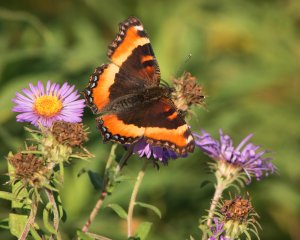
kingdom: Animalia
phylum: Arthropoda
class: Insecta
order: Lepidoptera
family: Nymphalidae
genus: Aglais
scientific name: Aglais milberti
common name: Milbert's Tortoiseshell
